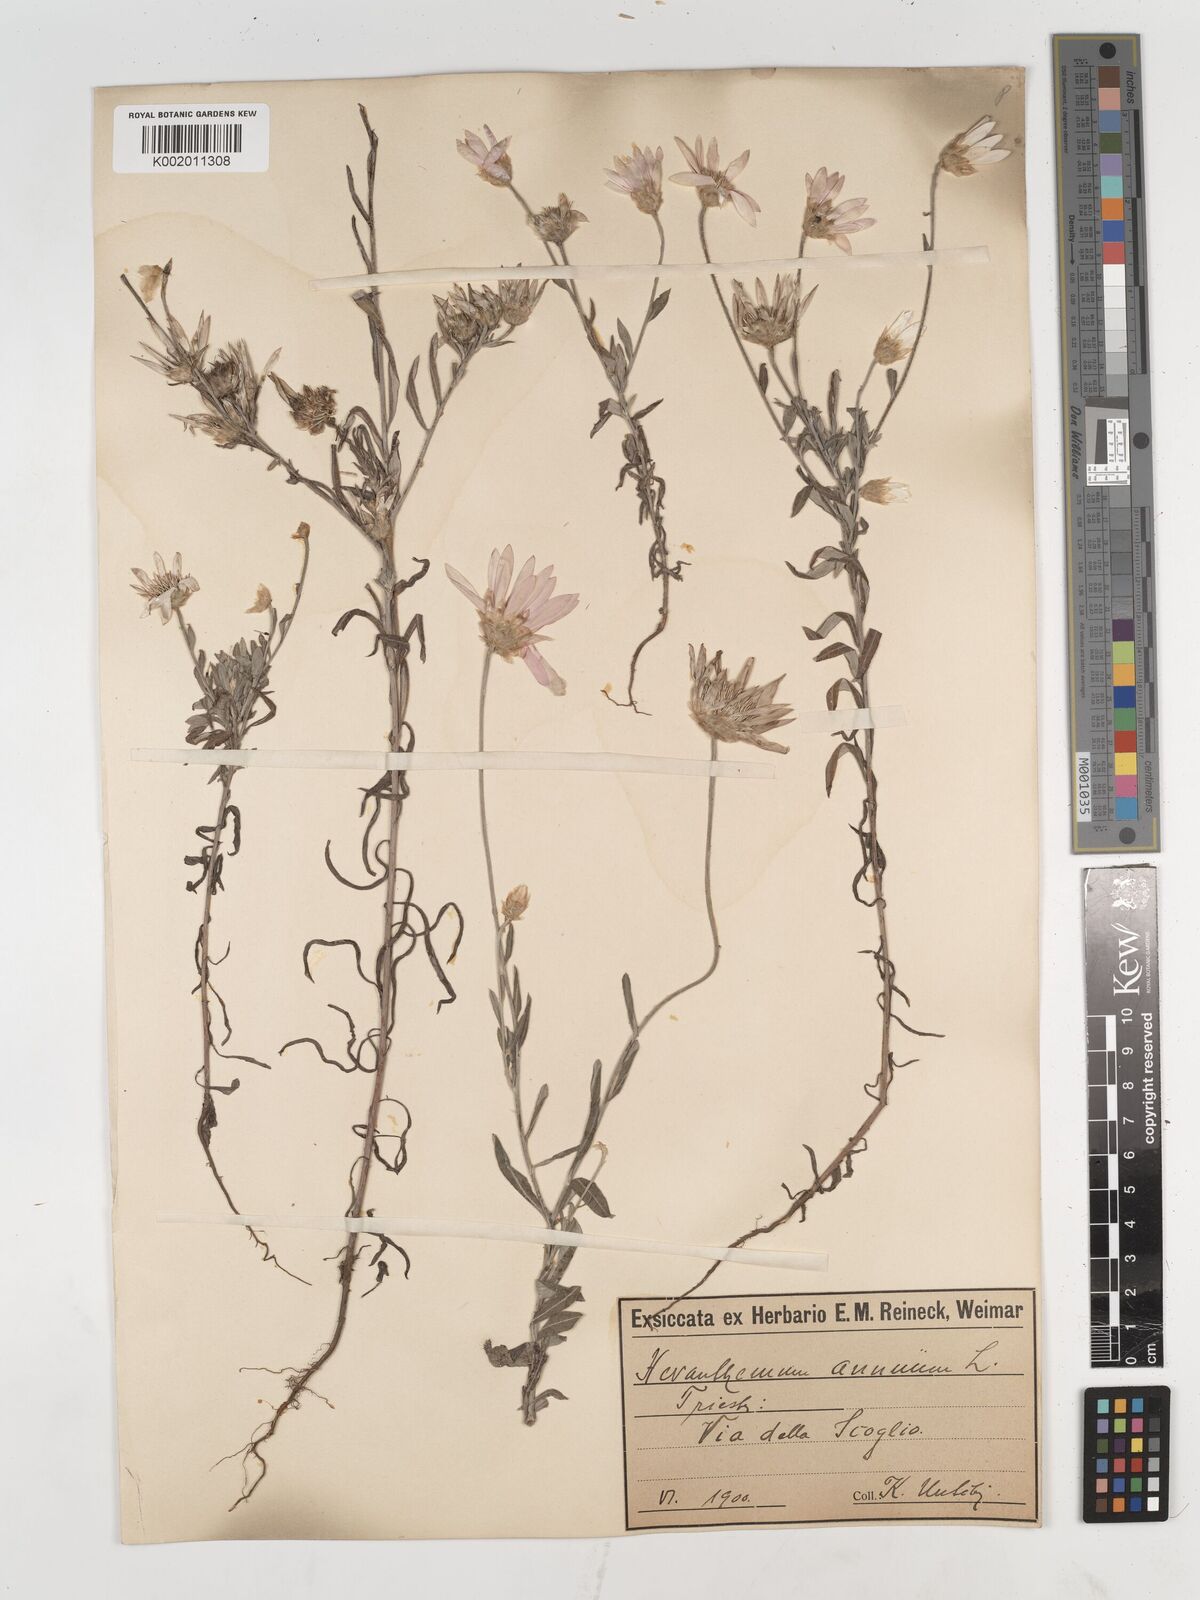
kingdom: Plantae
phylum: Tracheophyta
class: Magnoliopsida
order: Asterales
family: Asteraceae
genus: Xeranthemum
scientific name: Xeranthemum annuum
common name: Immortelle
